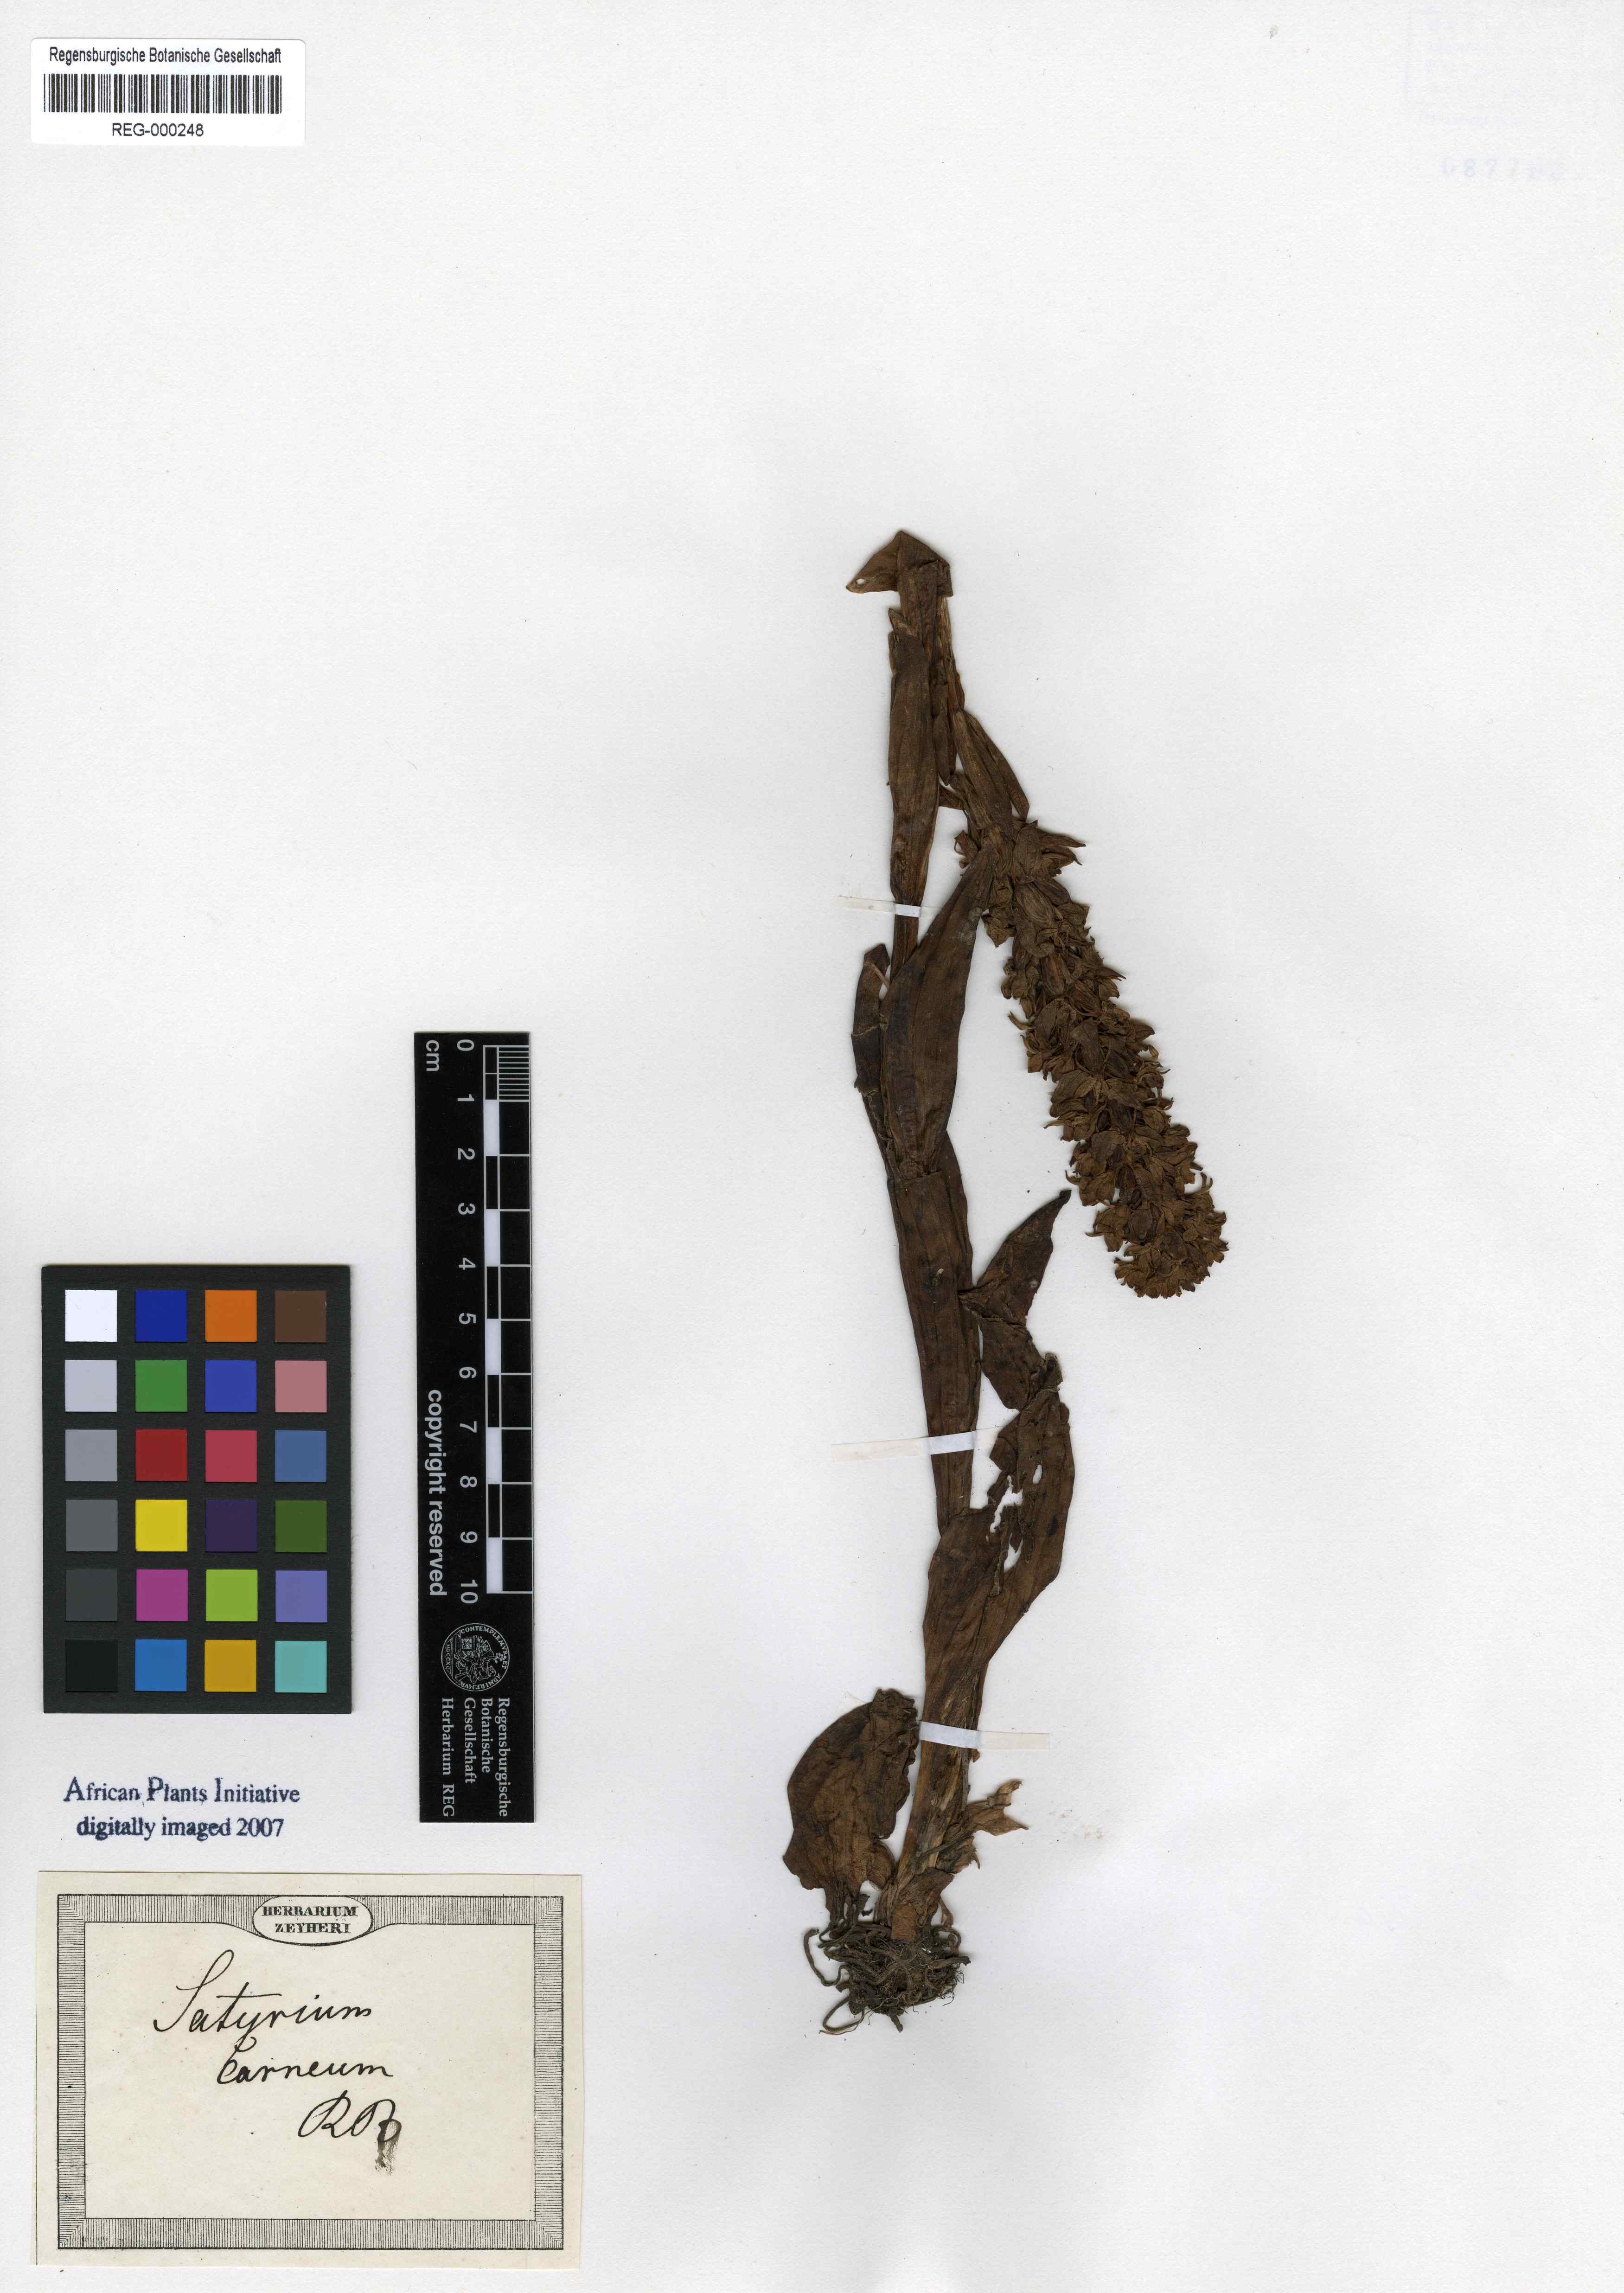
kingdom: Plantae
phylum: Tracheophyta
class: Liliopsida
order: Asparagales
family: Orchidaceae
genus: Satyrium
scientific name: Satyrium carneum
